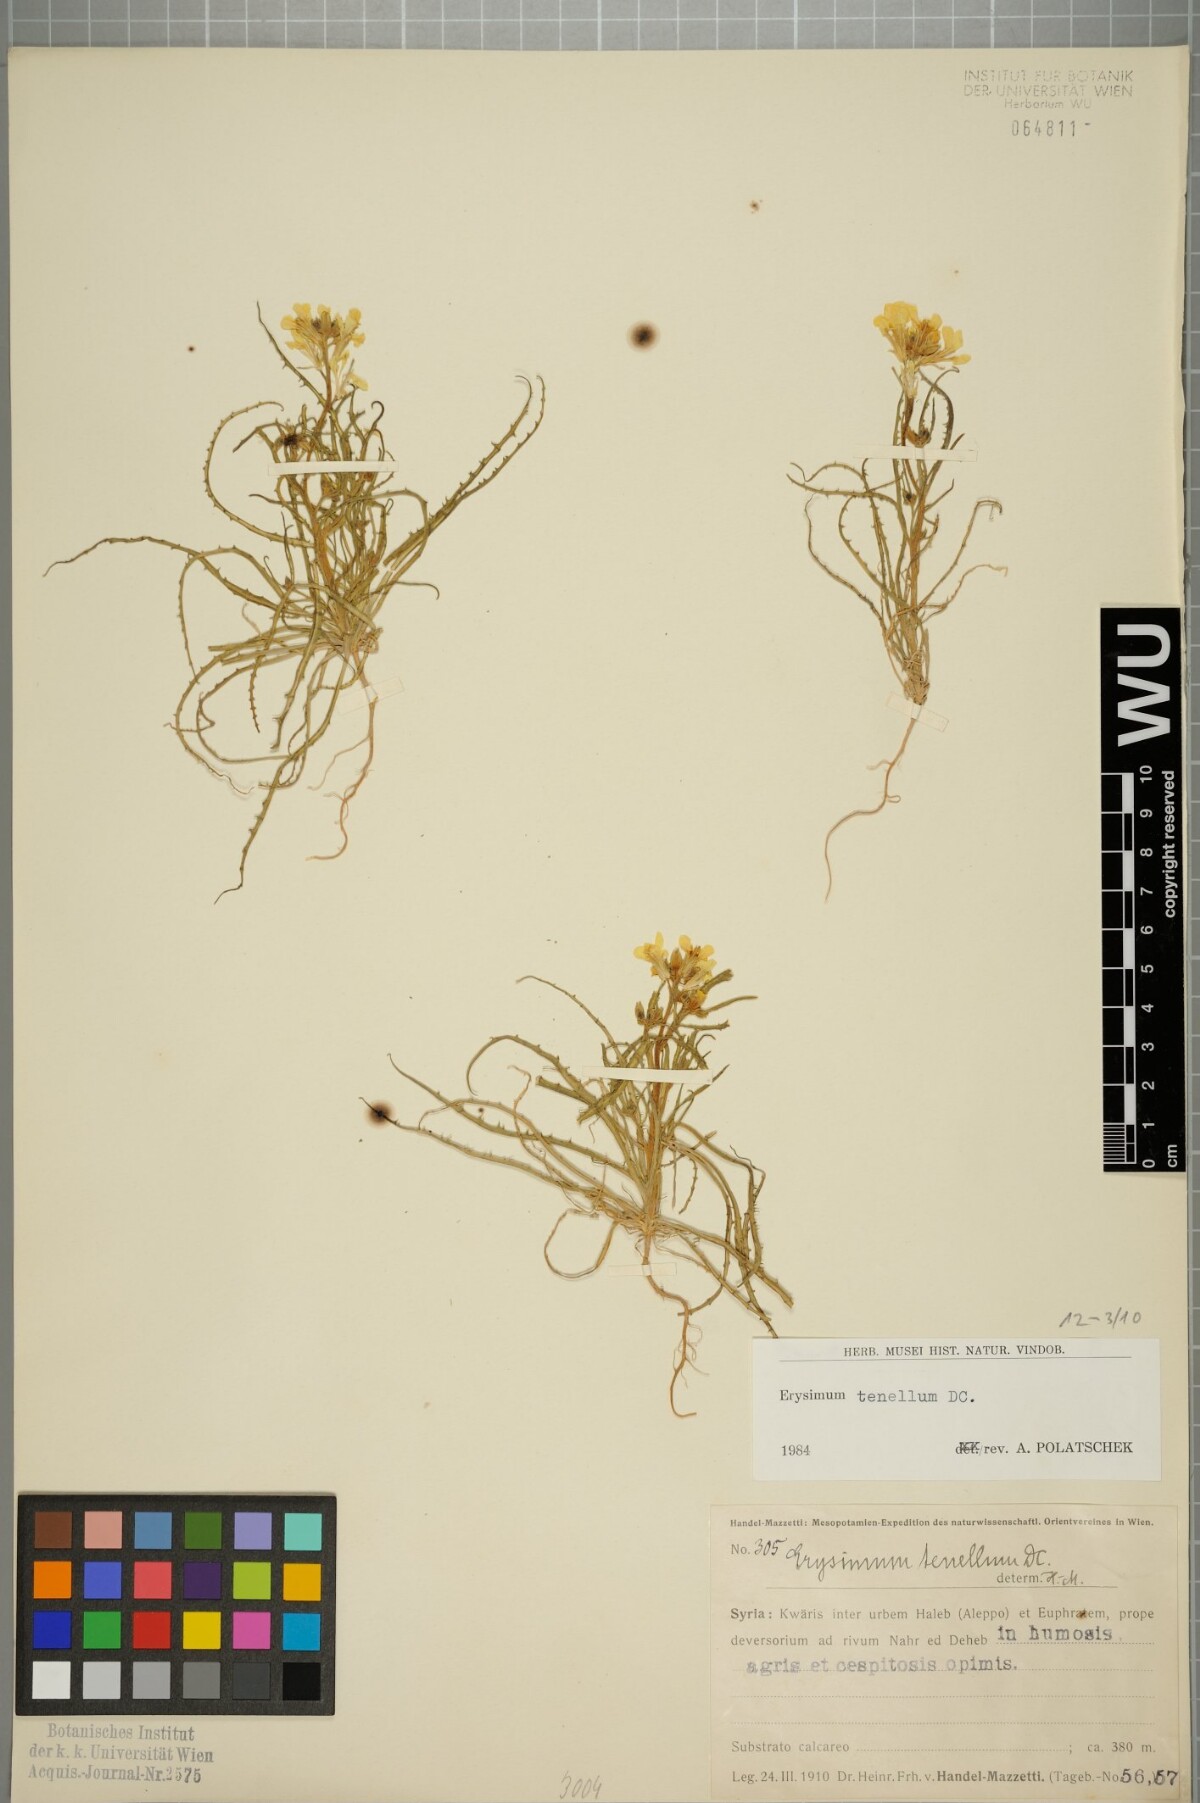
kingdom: Plantae
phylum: Tracheophyta
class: Magnoliopsida
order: Brassicales
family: Brassicaceae
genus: Erysimum
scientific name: Erysimum tenellum
